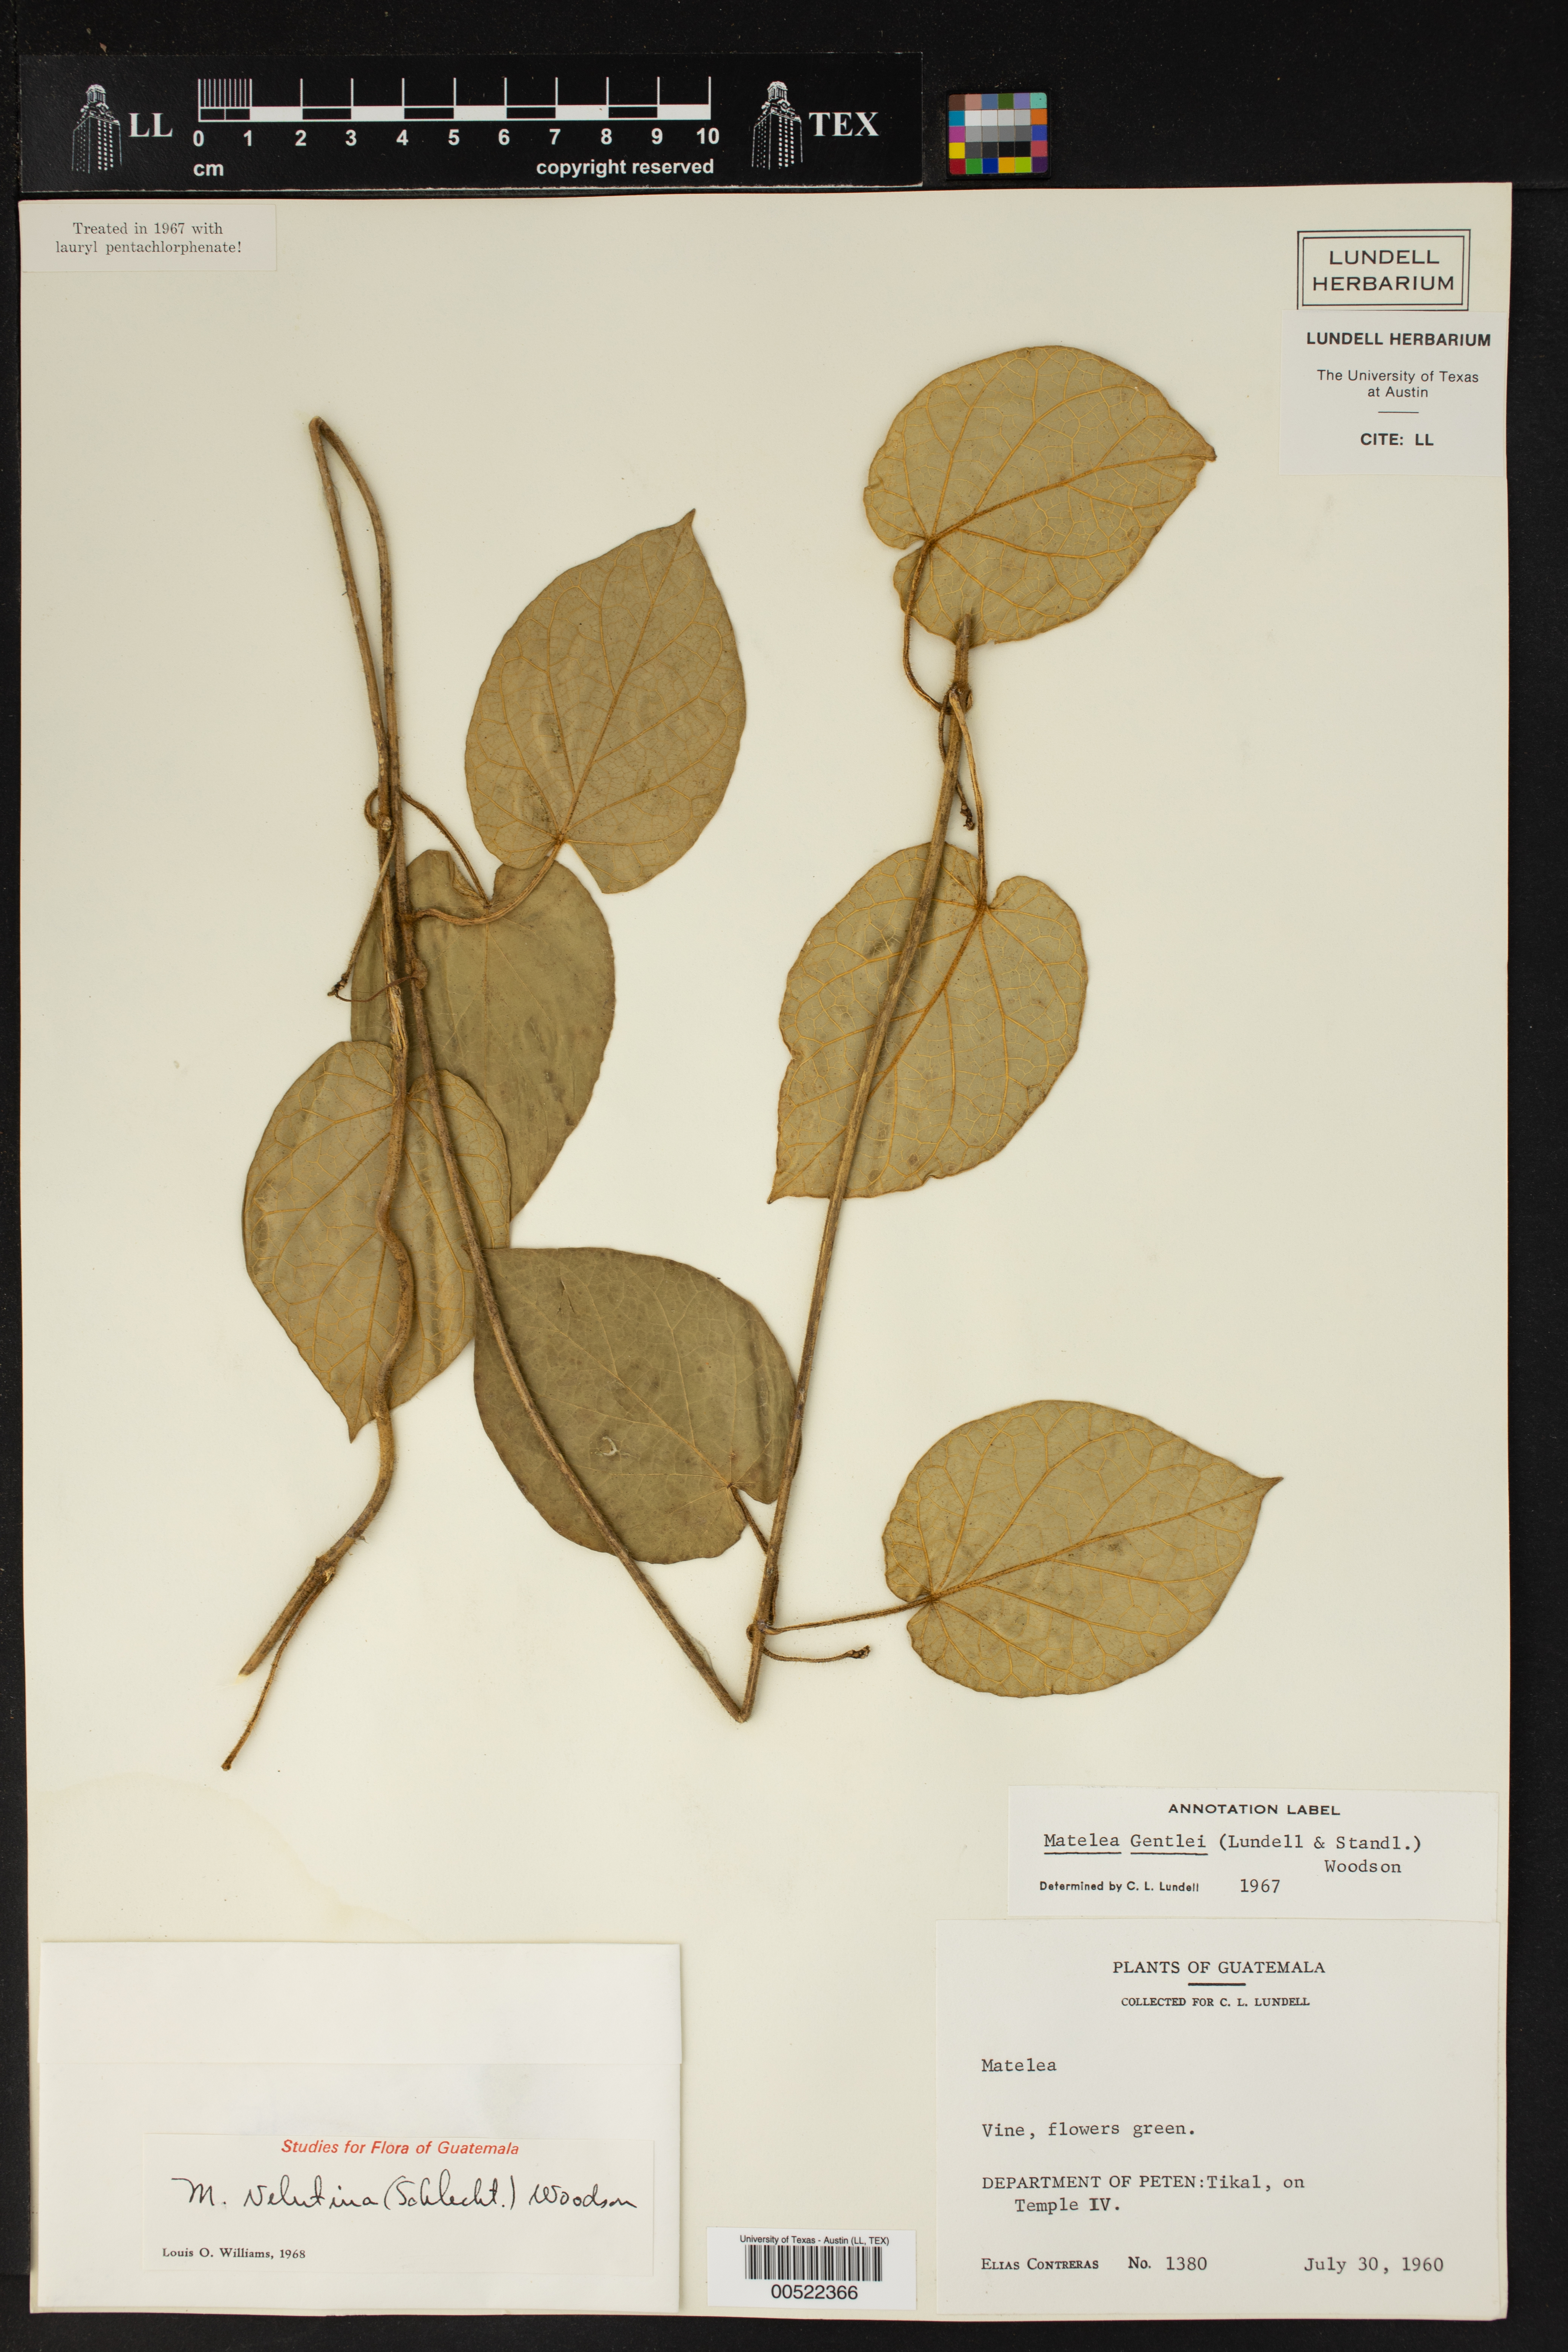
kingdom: Plantae
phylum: Tracheophyta
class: Magnoliopsida
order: Gentianales
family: Apocynaceae
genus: Matelea
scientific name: Matelea velutina
